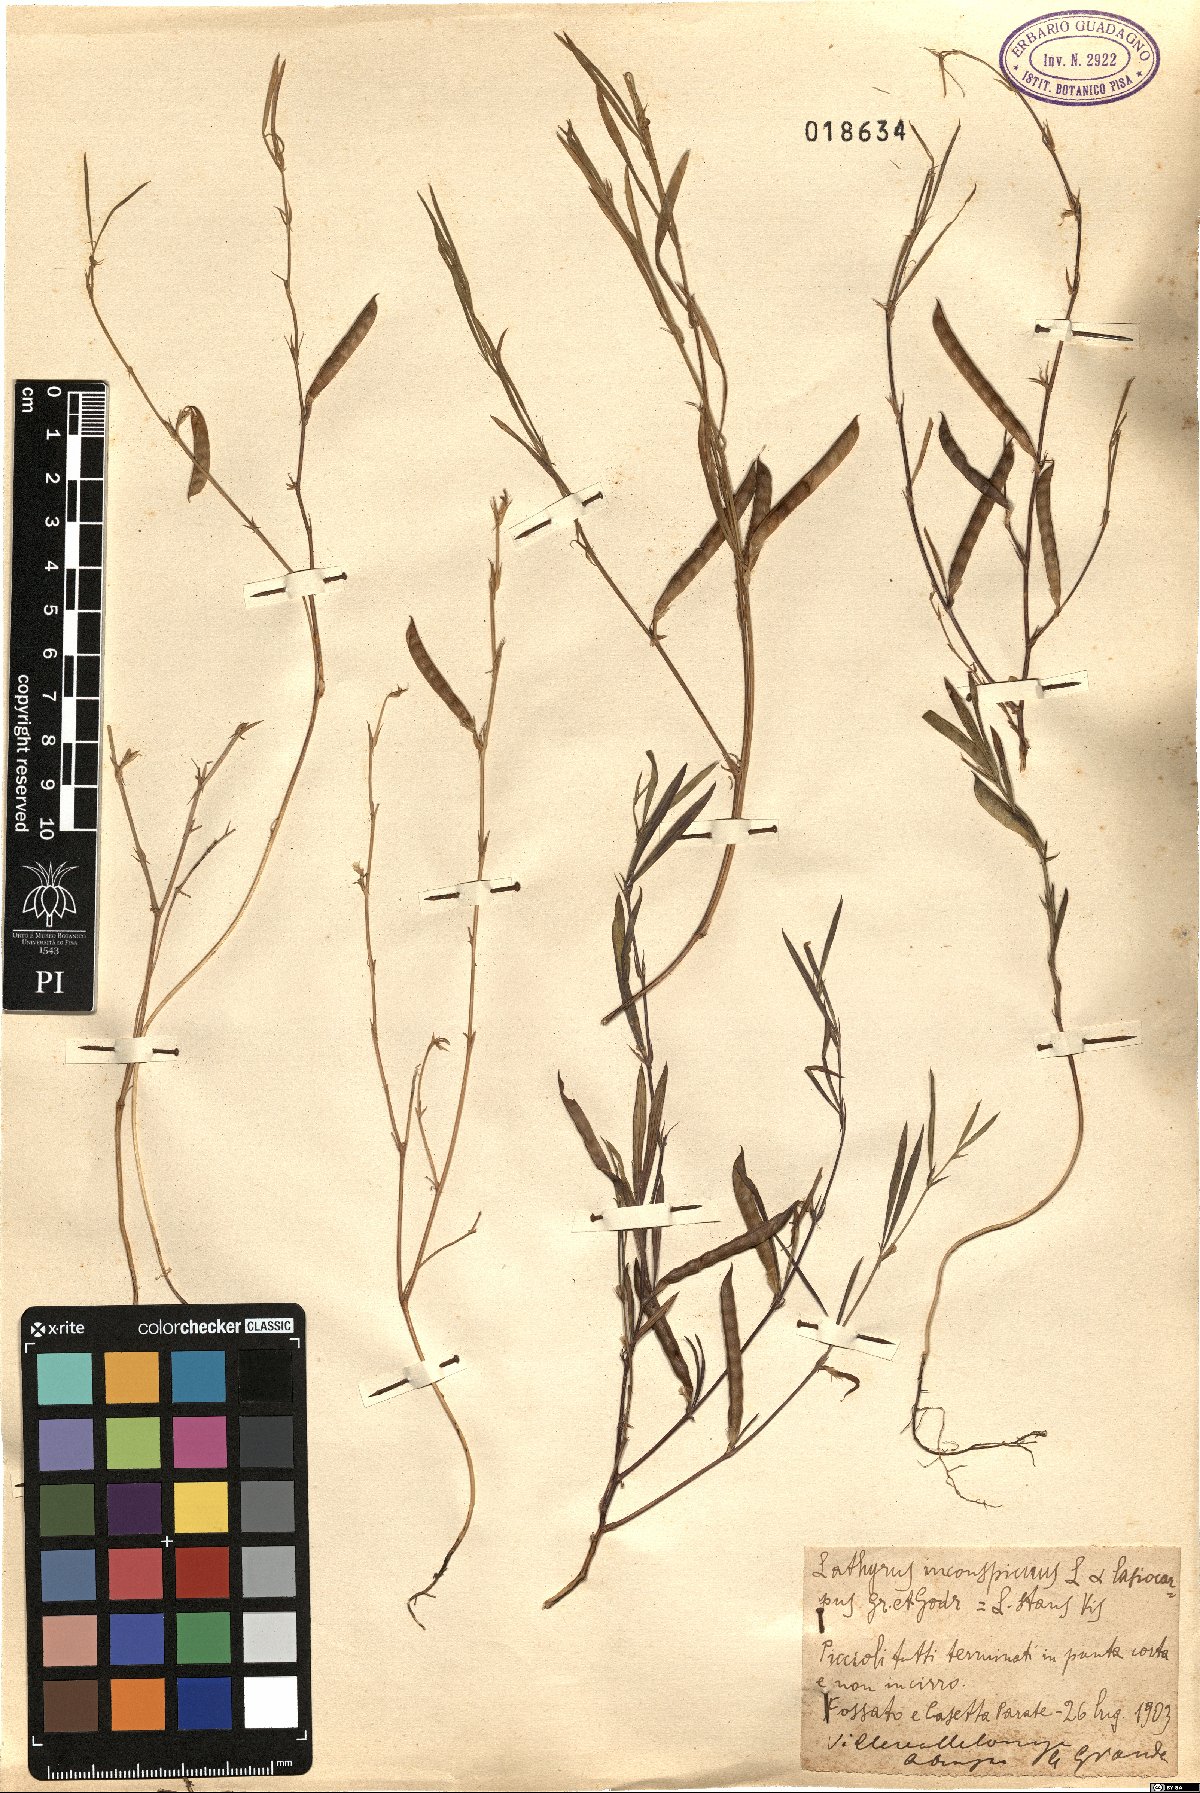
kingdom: Plantae
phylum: Tracheophyta
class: Magnoliopsida
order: Fabales
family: Fabaceae
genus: Lathyrus
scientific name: Lathyrus inconspicuus
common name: Inconspicuous pea
